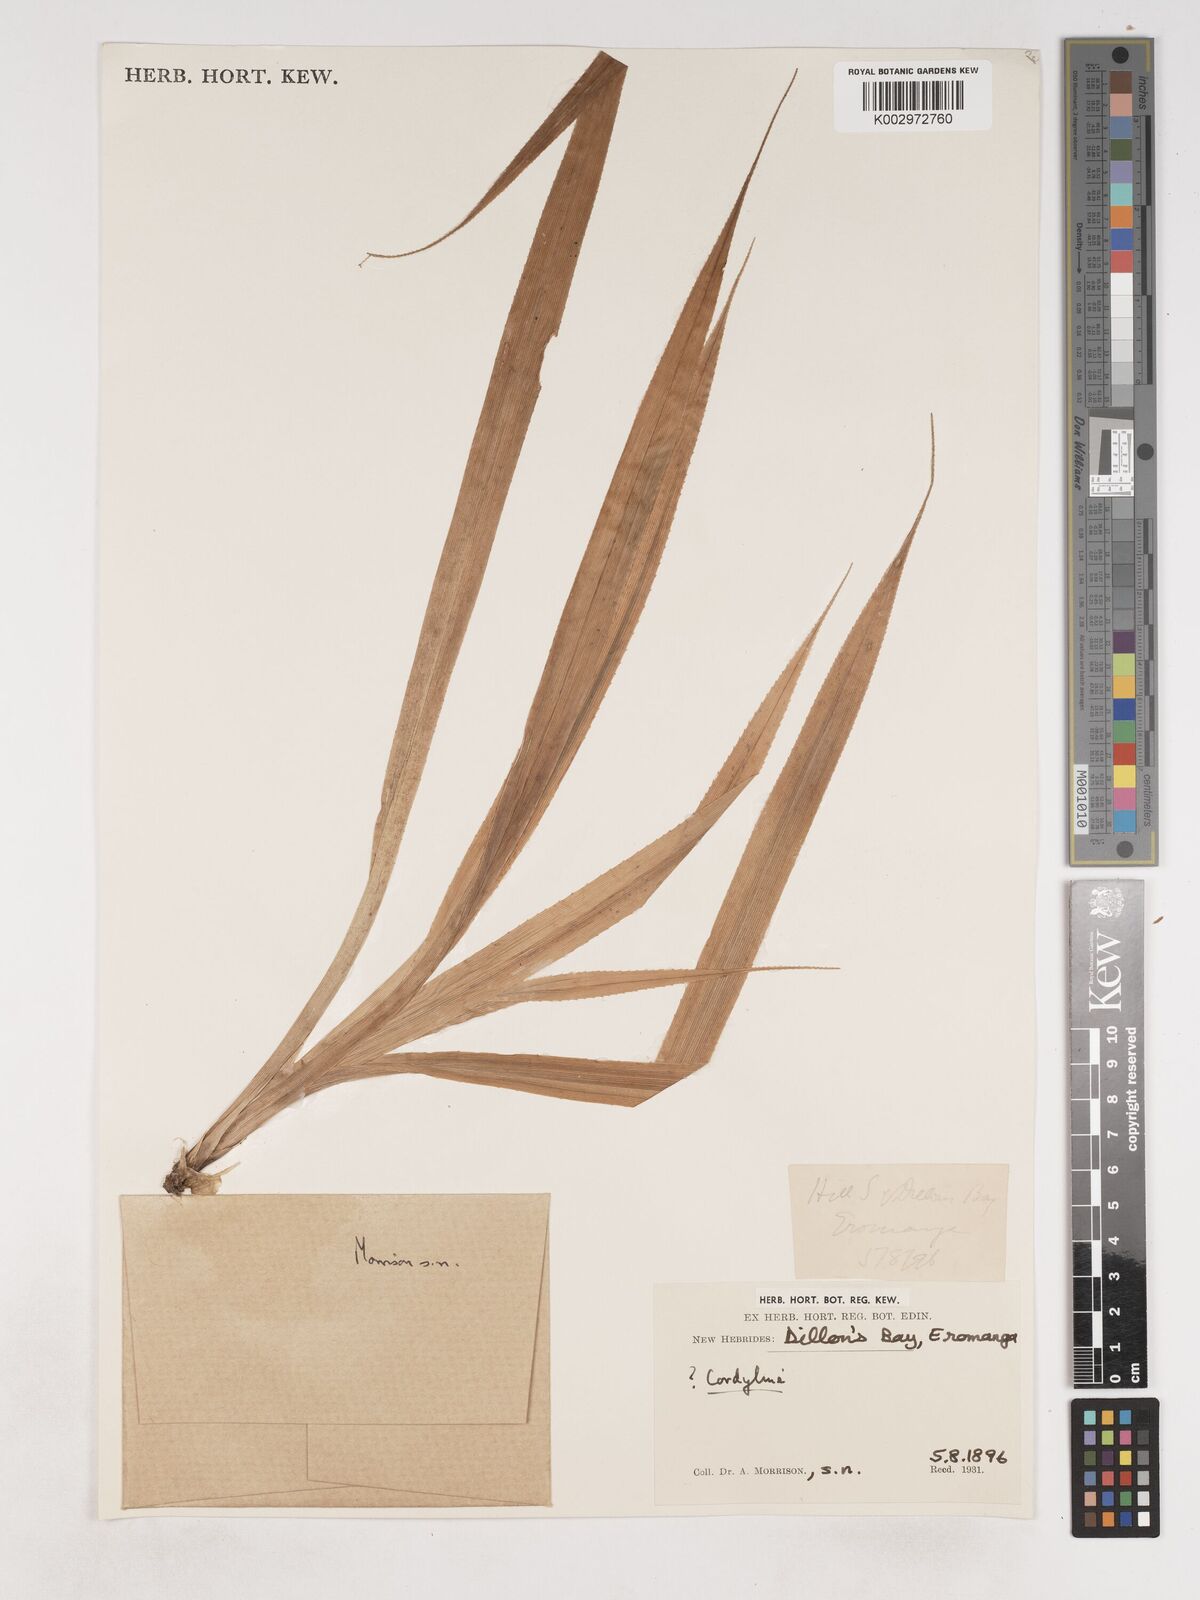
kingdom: Plantae
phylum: Tracheophyta
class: Liliopsida
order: Asparagales
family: Asparagaceae
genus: Cordyline
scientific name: Cordyline
